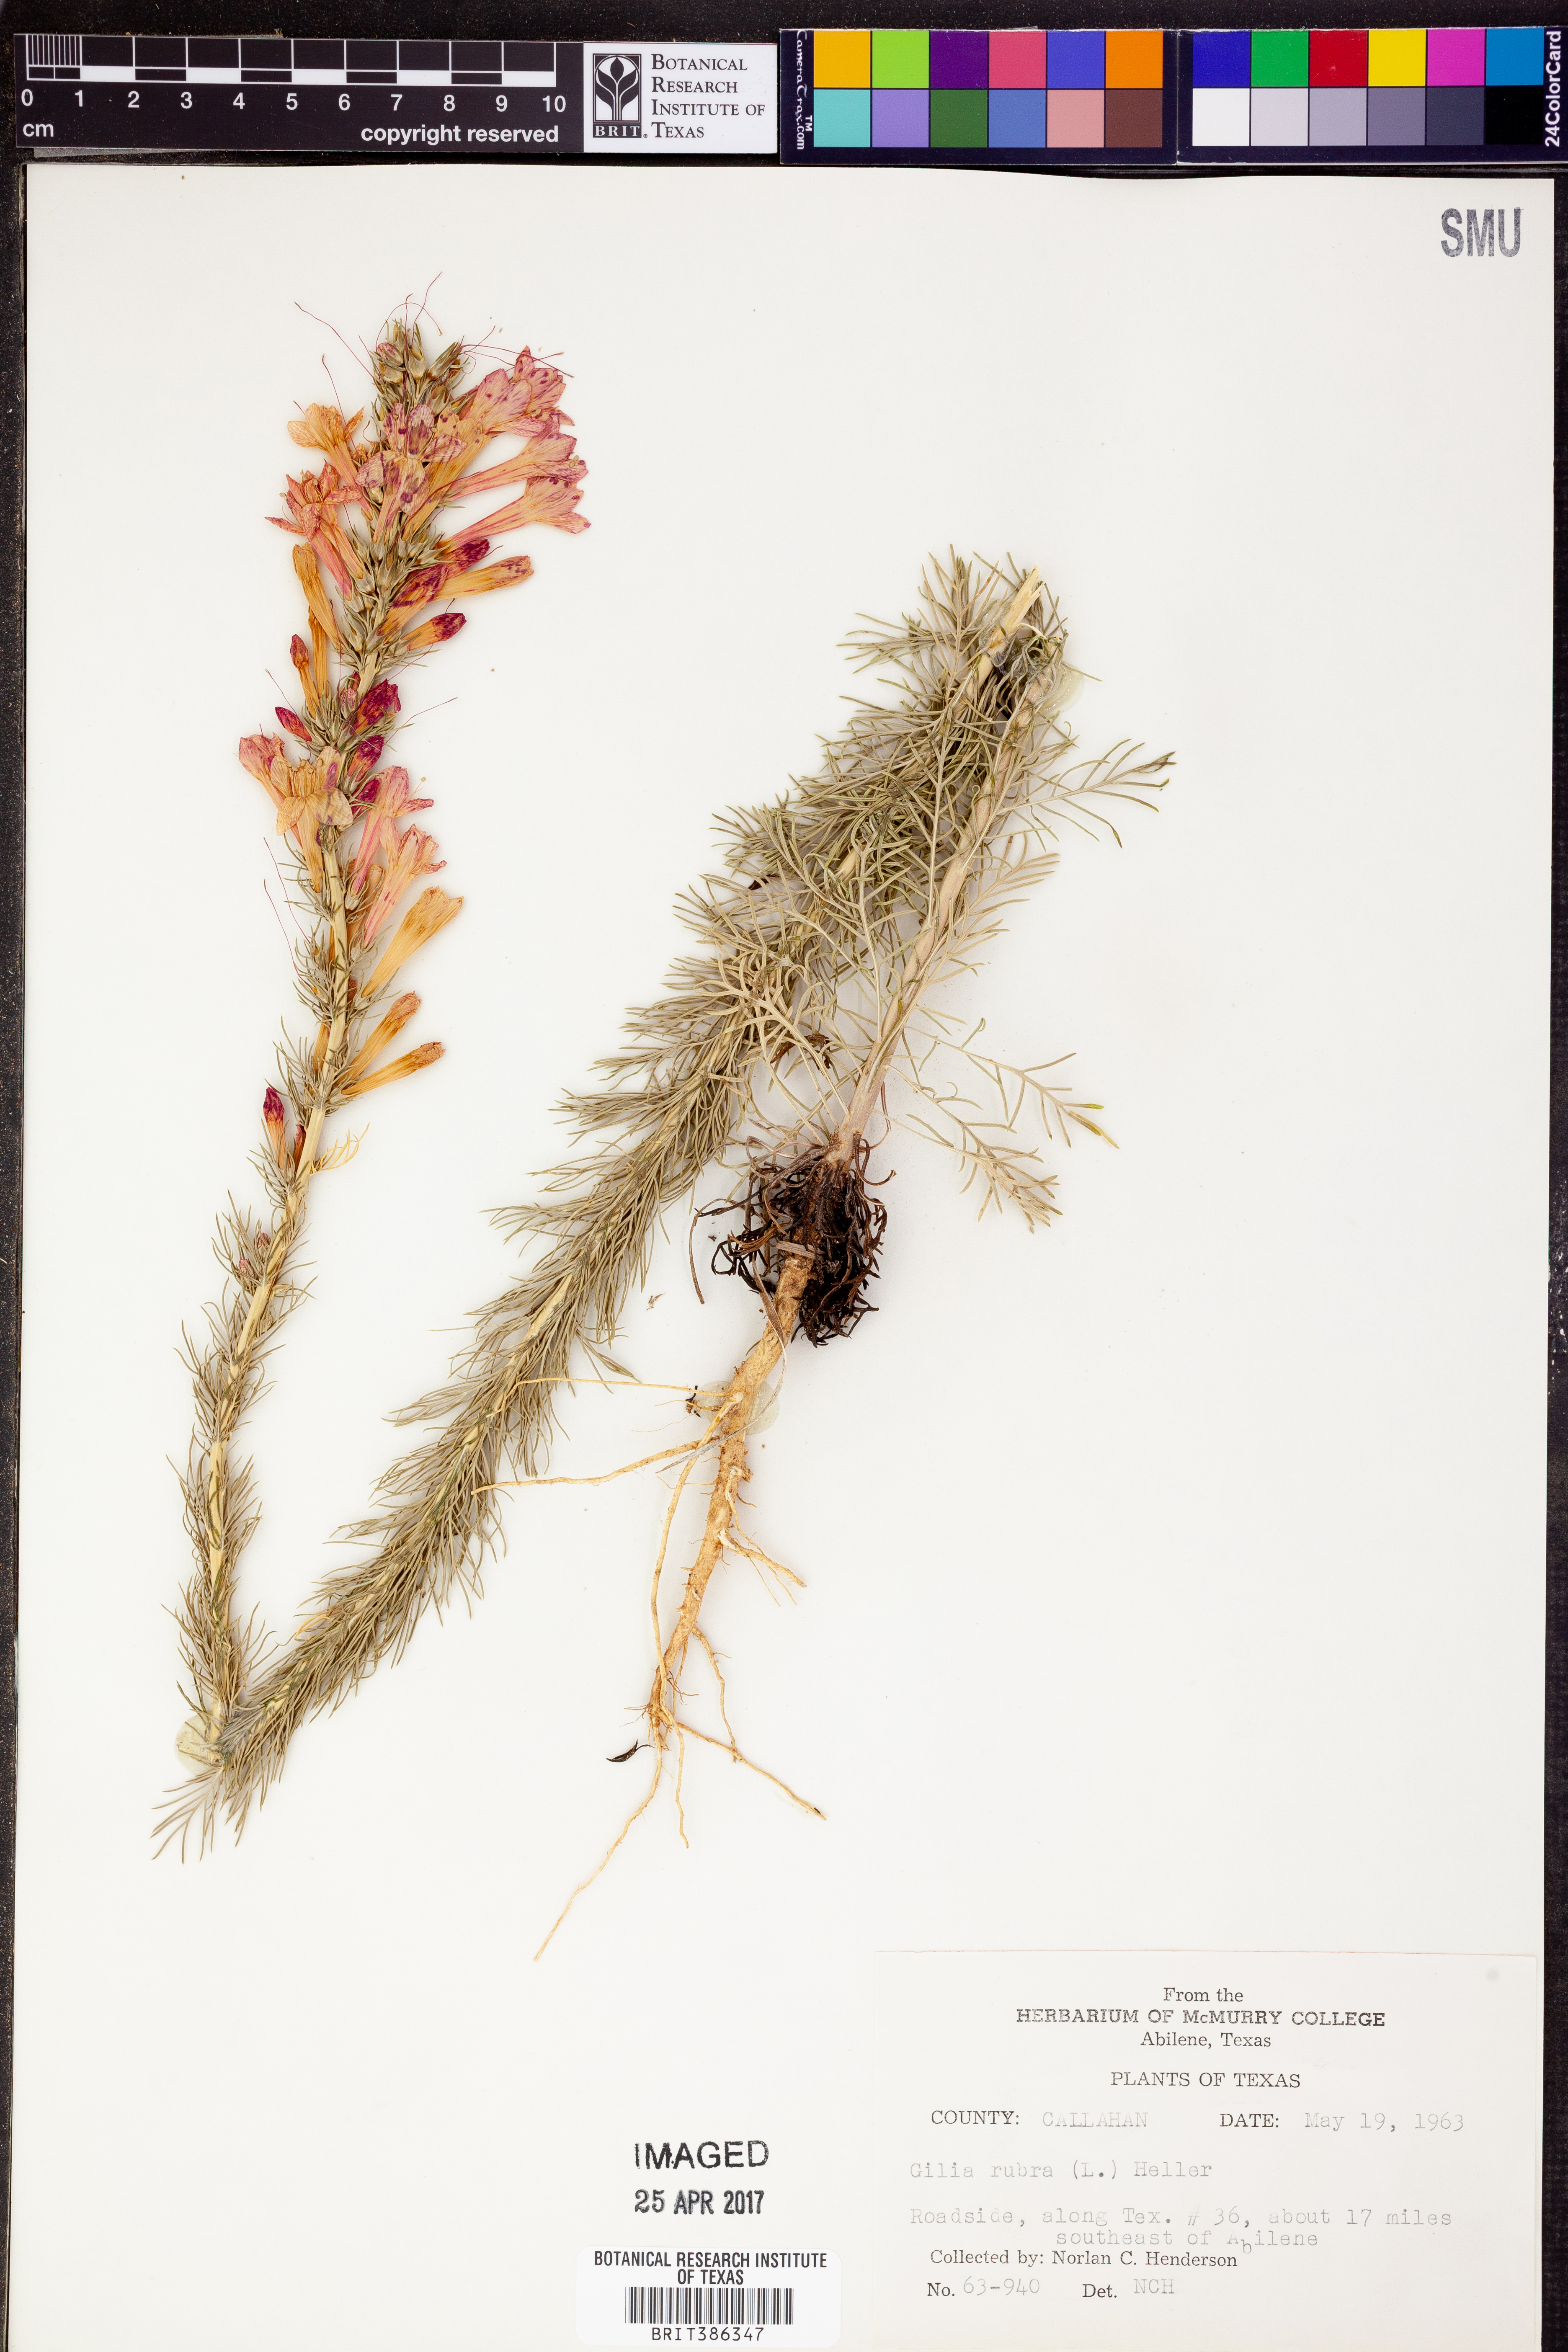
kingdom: Plantae
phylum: Tracheophyta
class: Magnoliopsida
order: Ericales
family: Polemoniaceae
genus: Ipomopsis
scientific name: Ipomopsis rubra
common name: Skyrocket
